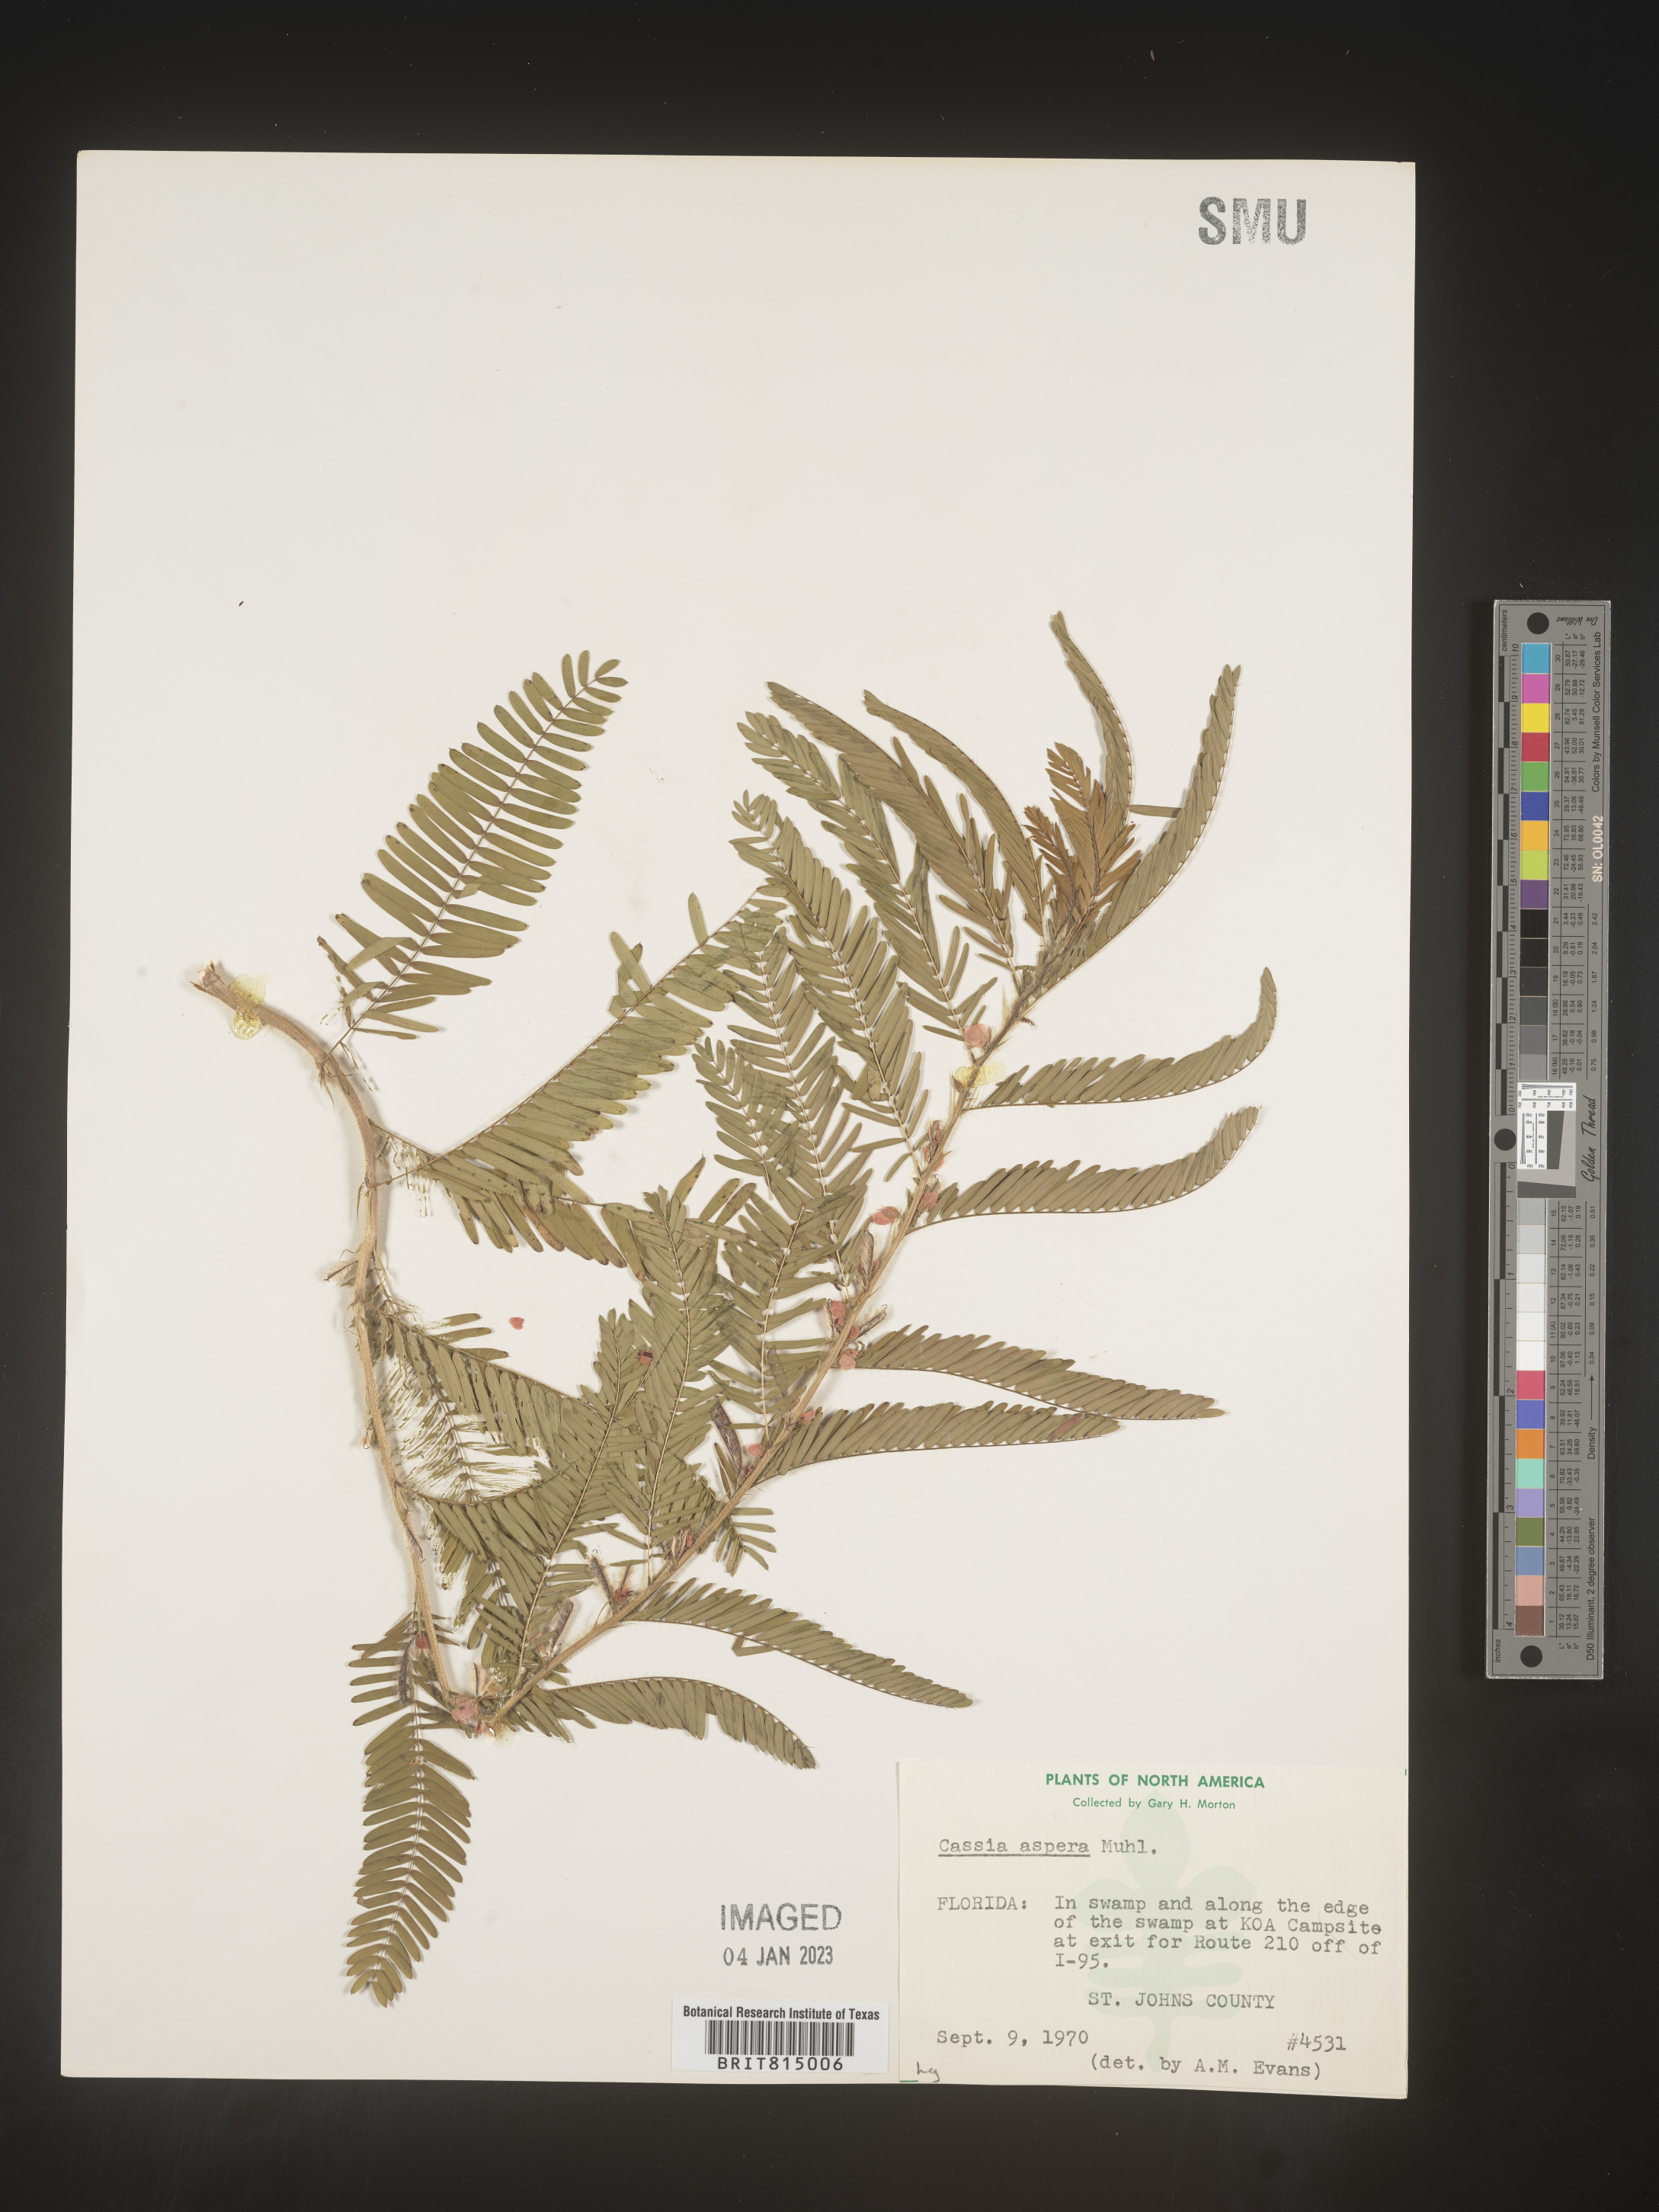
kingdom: Plantae
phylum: Tracheophyta
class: Magnoliopsida
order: Fabales
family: Fabaceae
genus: Cassia
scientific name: Cassia
